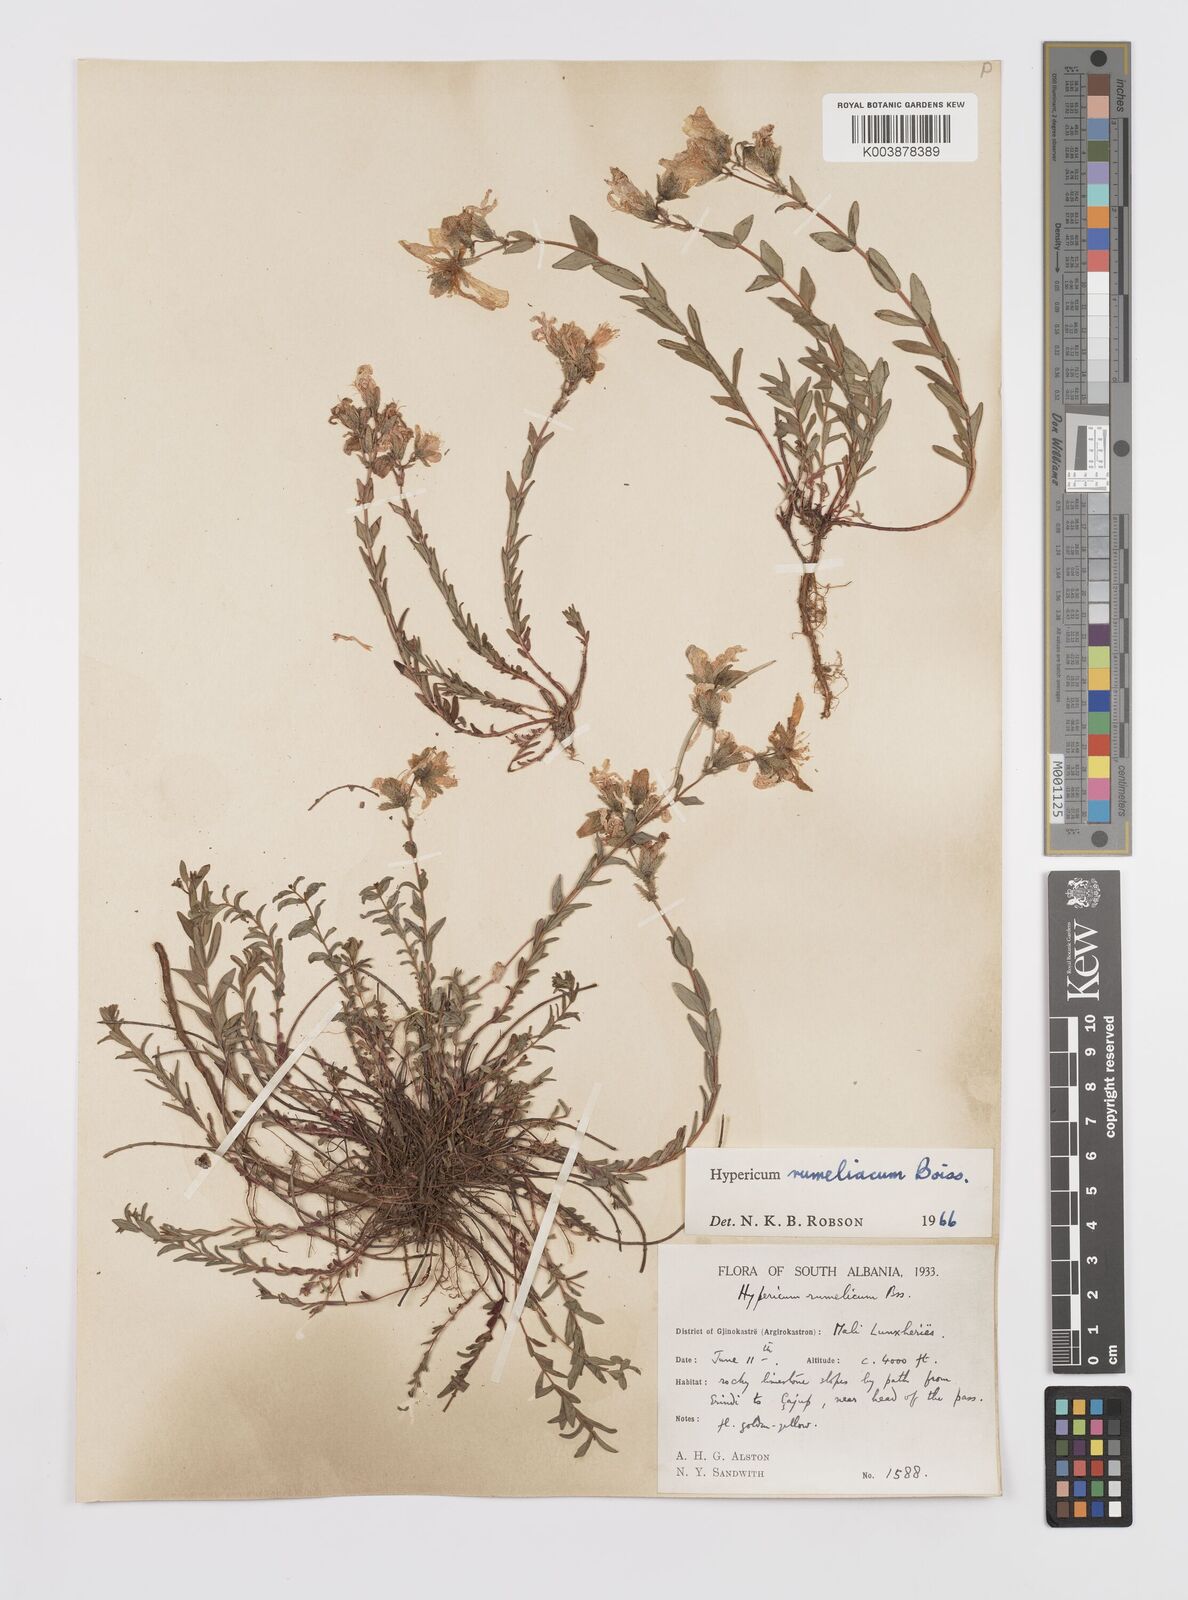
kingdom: Plantae
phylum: Tracheophyta
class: Magnoliopsida
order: Malpighiales
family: Hypericaceae
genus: Hypericum
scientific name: Hypericum rumeliacum
